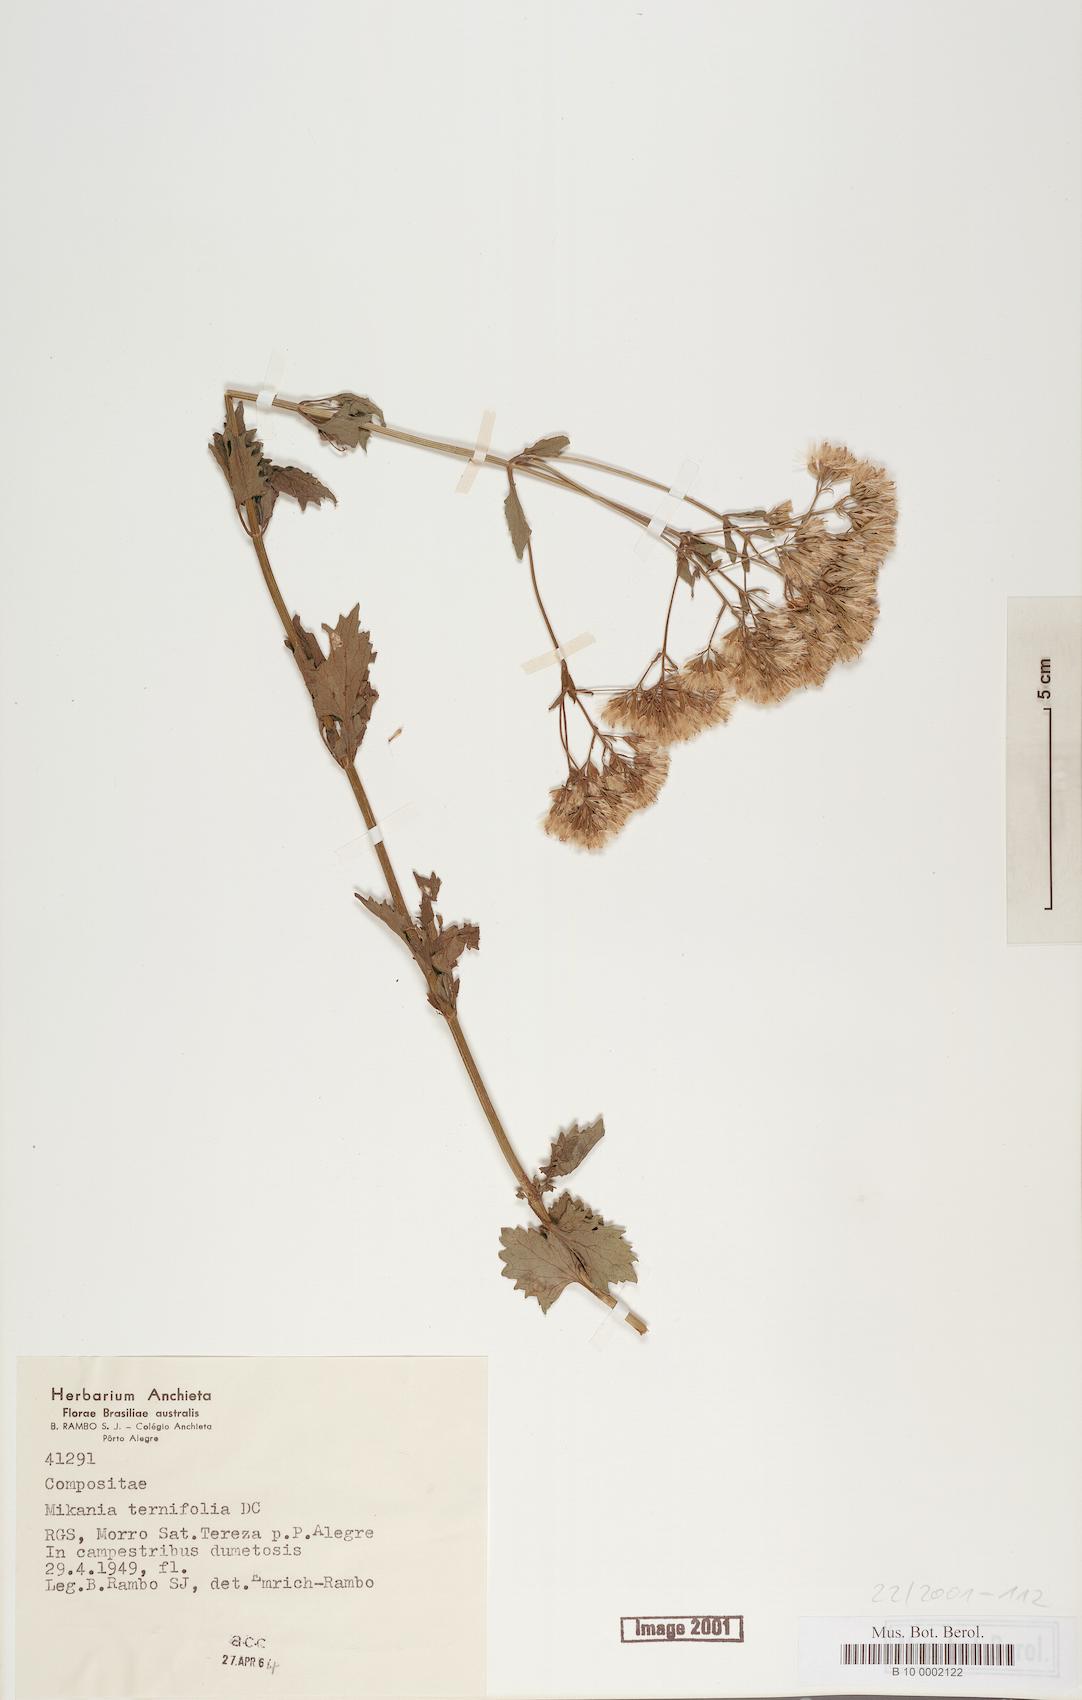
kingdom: Plantae
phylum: Tracheophyta
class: Magnoliopsida
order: Asterales
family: Asteraceae
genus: Mikania
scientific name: Mikania fulva
